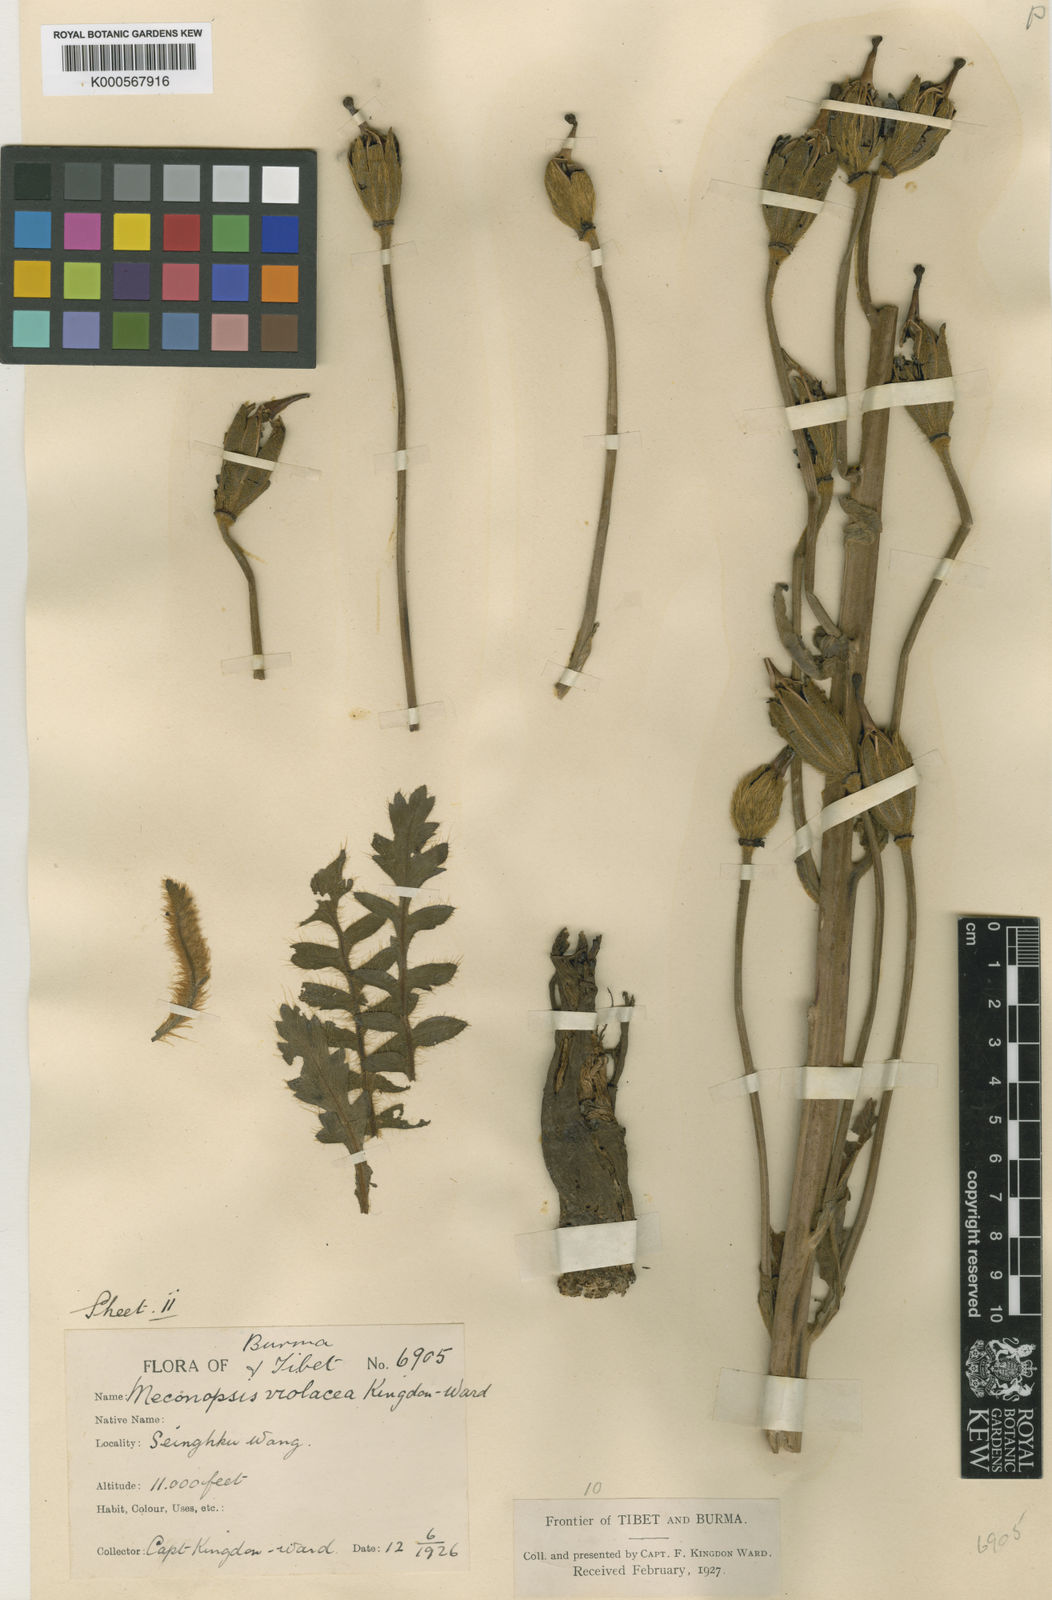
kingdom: Plantae
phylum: Tracheophyta
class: Magnoliopsida
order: Ranunculales
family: Papaveraceae
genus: Meconopsis
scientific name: Meconopsis violacea
